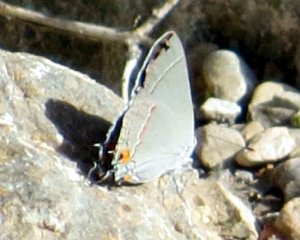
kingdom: Animalia
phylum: Arthropoda
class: Insecta
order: Lepidoptera
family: Lycaenidae
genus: Strymon
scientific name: Strymon melinus
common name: Gray Hairstreak
